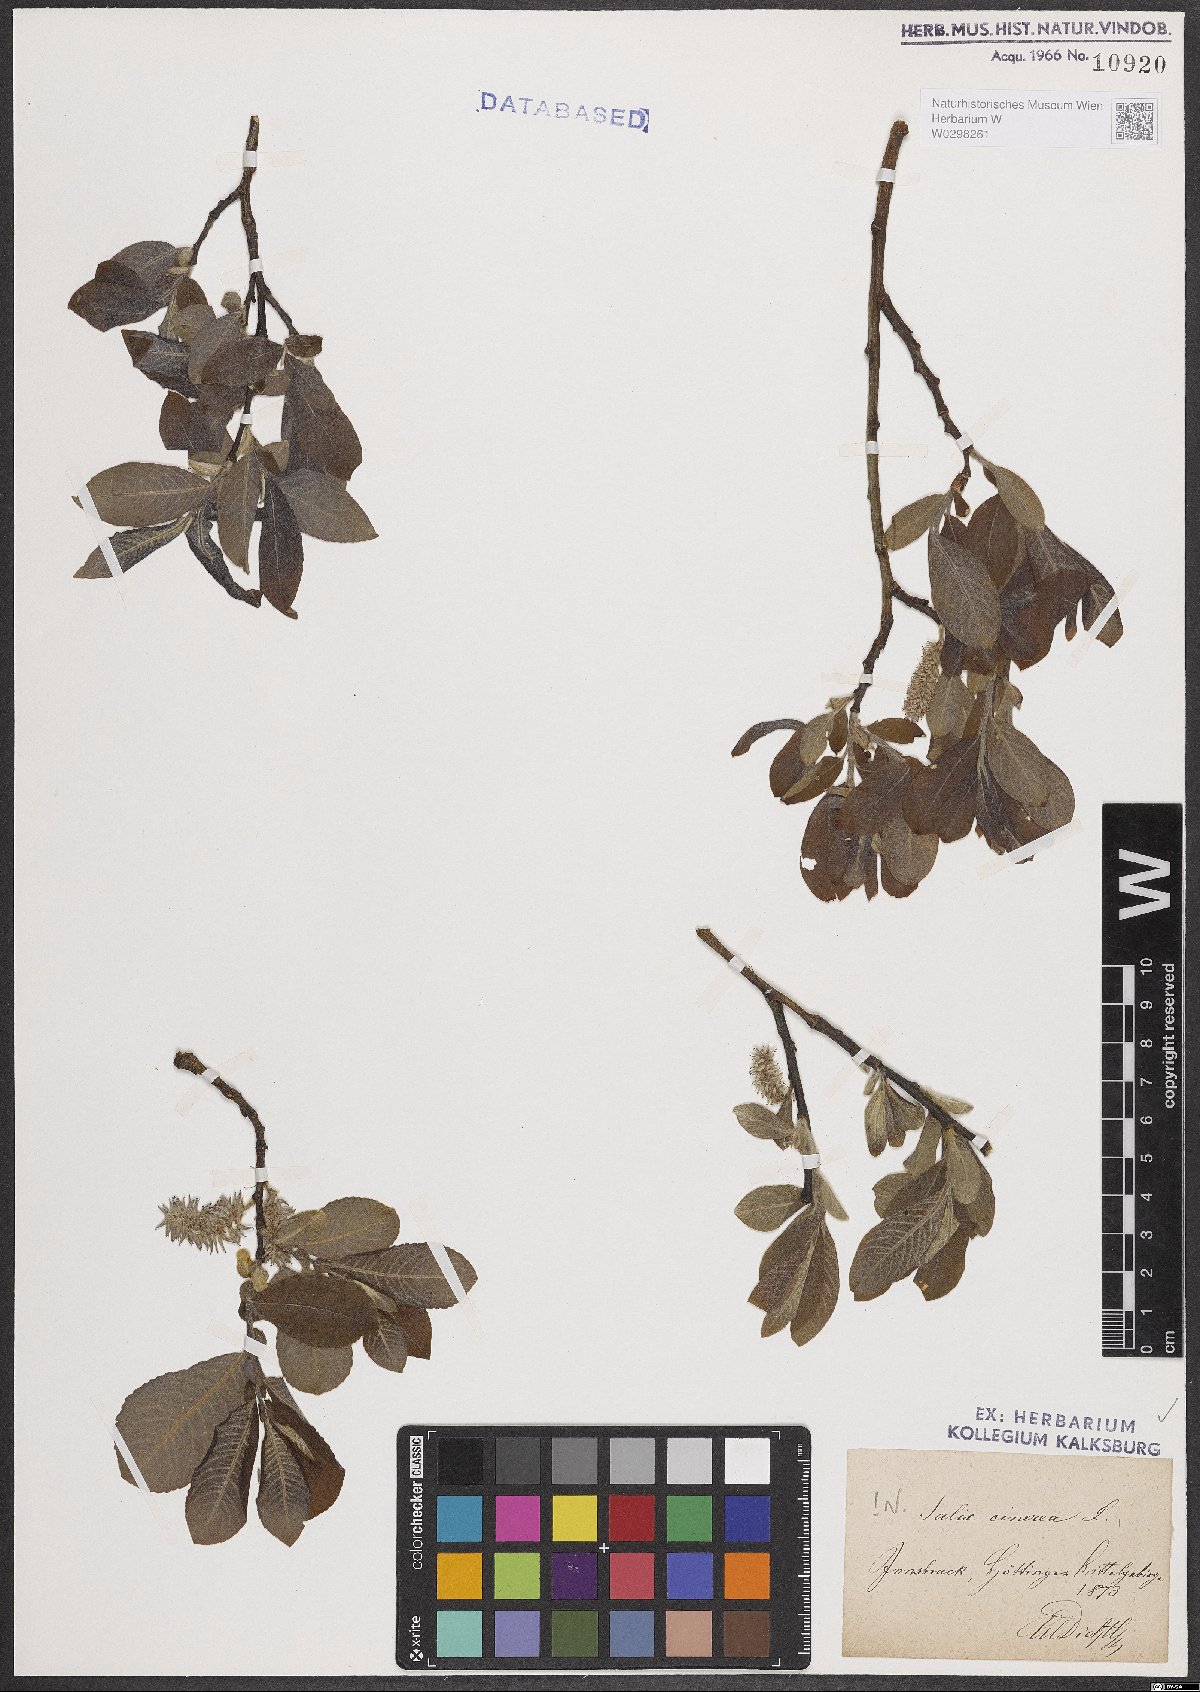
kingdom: Plantae
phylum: Tracheophyta
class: Magnoliopsida
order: Malpighiales
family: Salicaceae
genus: Salix
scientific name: Salix cinerea
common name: Common sallow
